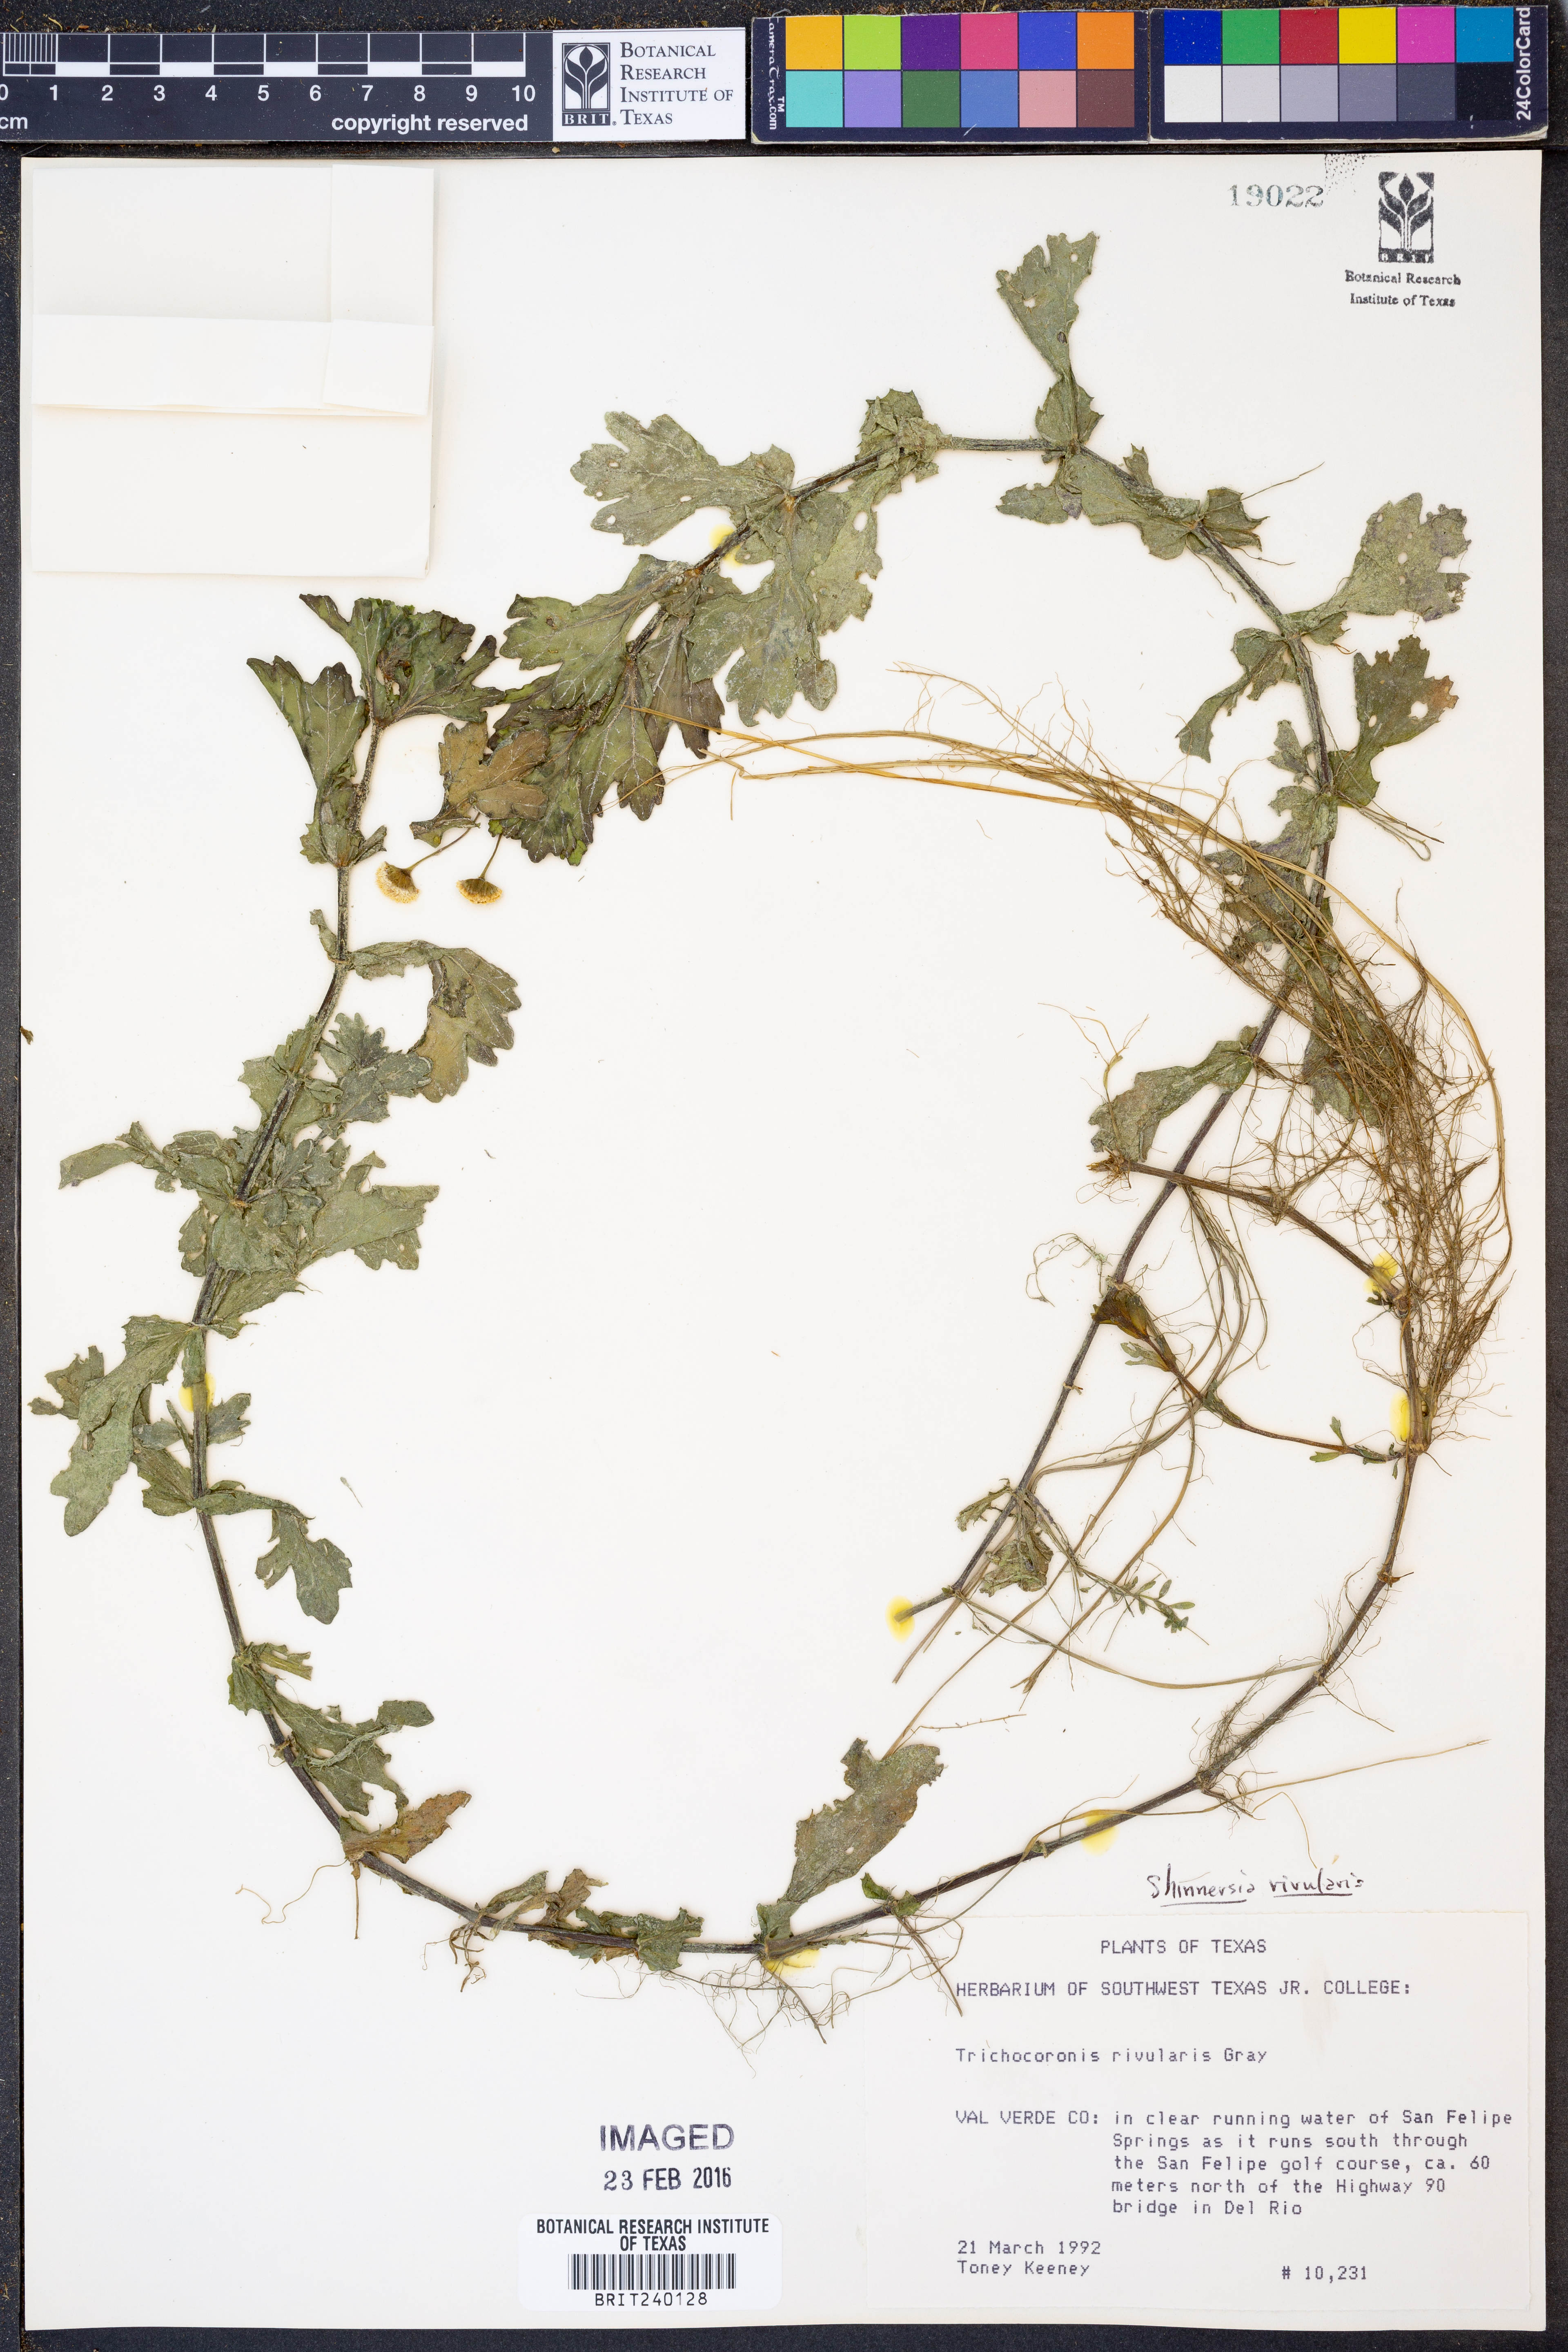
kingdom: Plantae
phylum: Tracheophyta
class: Magnoliopsida
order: Asterales
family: Asteraceae
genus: Shinnersia
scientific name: Shinnersia rivularis
